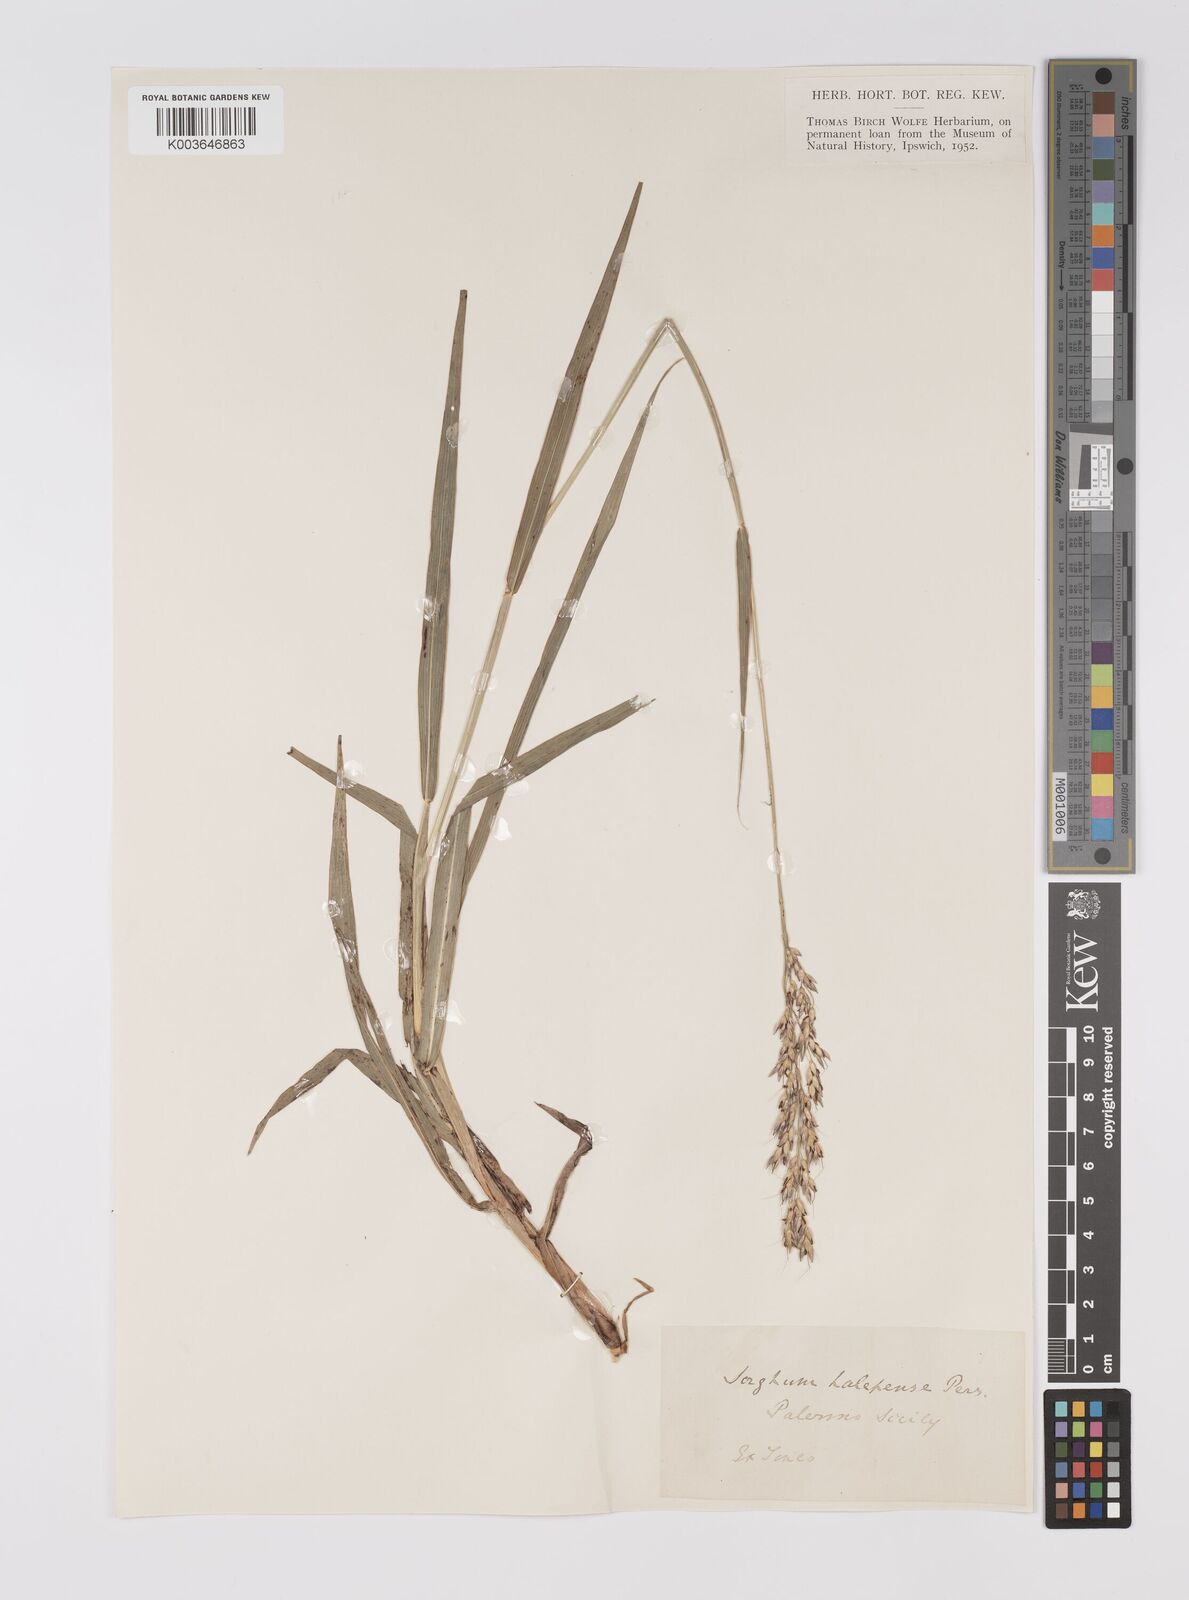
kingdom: Plantae
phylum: Tracheophyta
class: Liliopsida
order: Poales
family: Poaceae
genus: Sorghum
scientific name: Sorghum halepense
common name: Johnson-grass
